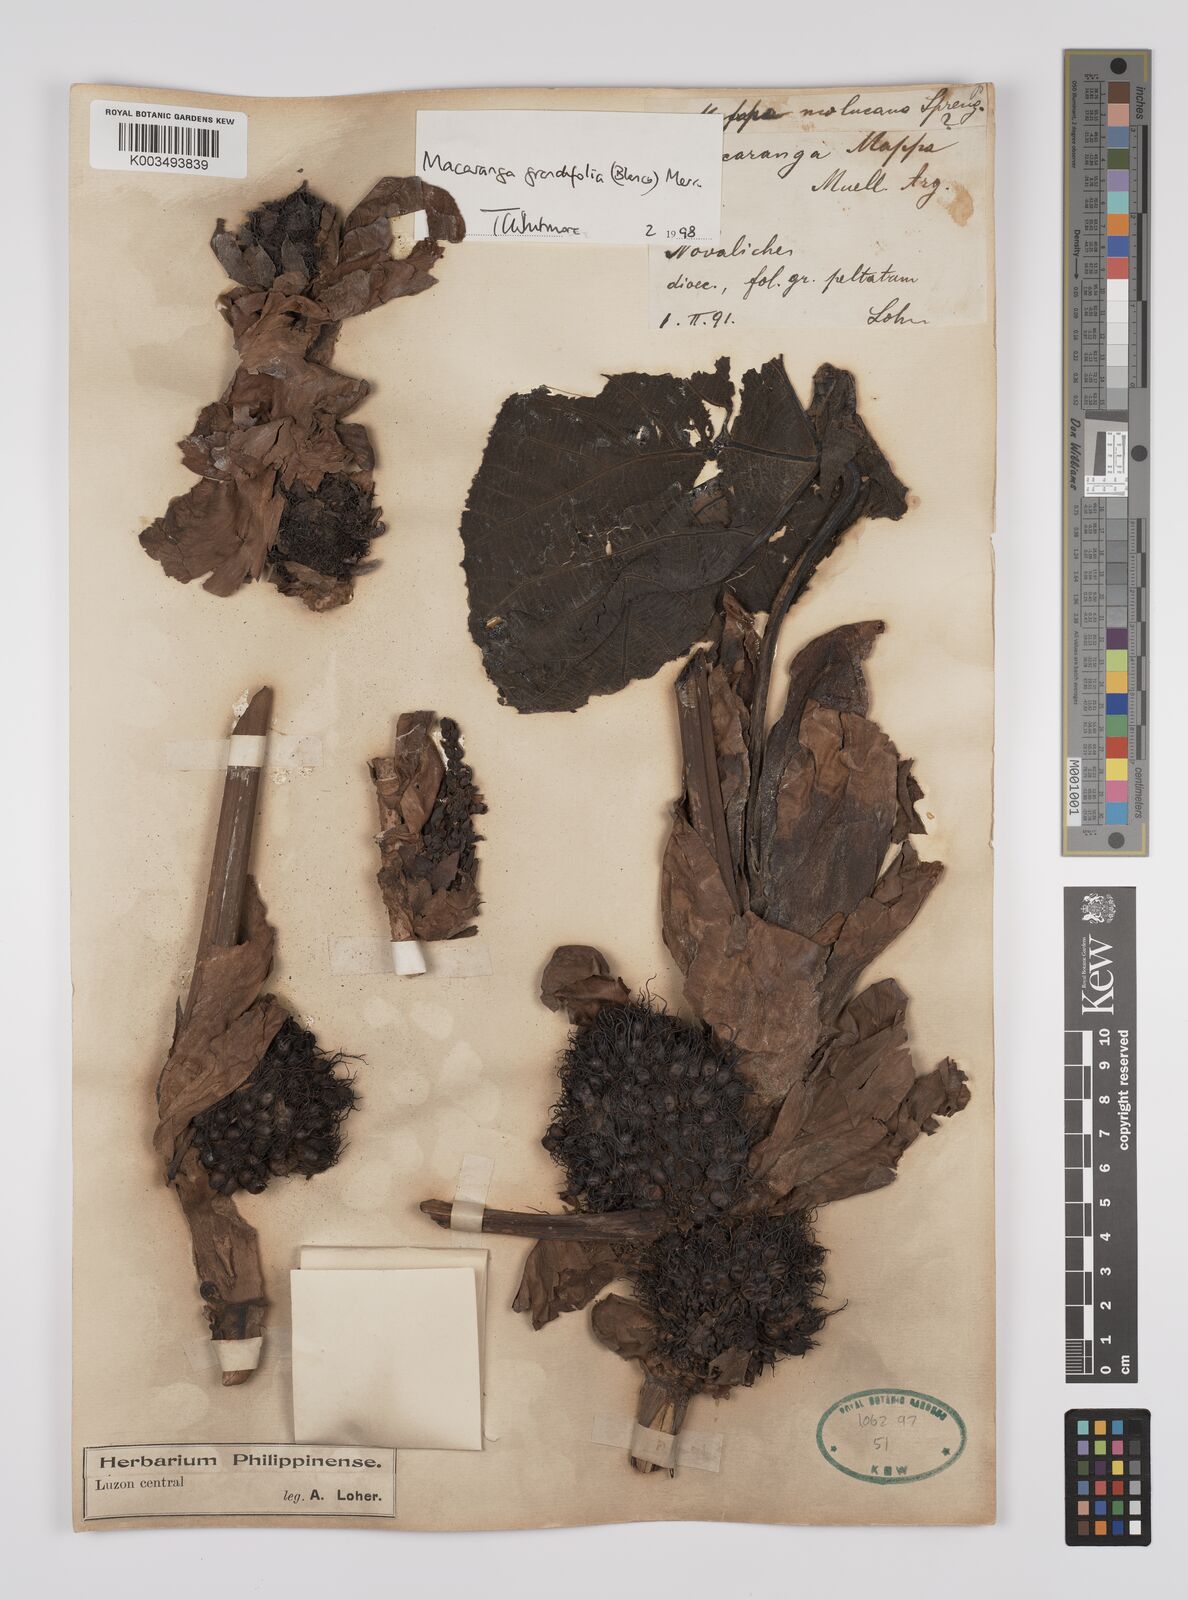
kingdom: Plantae
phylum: Tracheophyta
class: Magnoliopsida
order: Malpighiales
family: Euphorbiaceae
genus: Macaranga
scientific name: Macaranga grandifolia
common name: Coraltree
